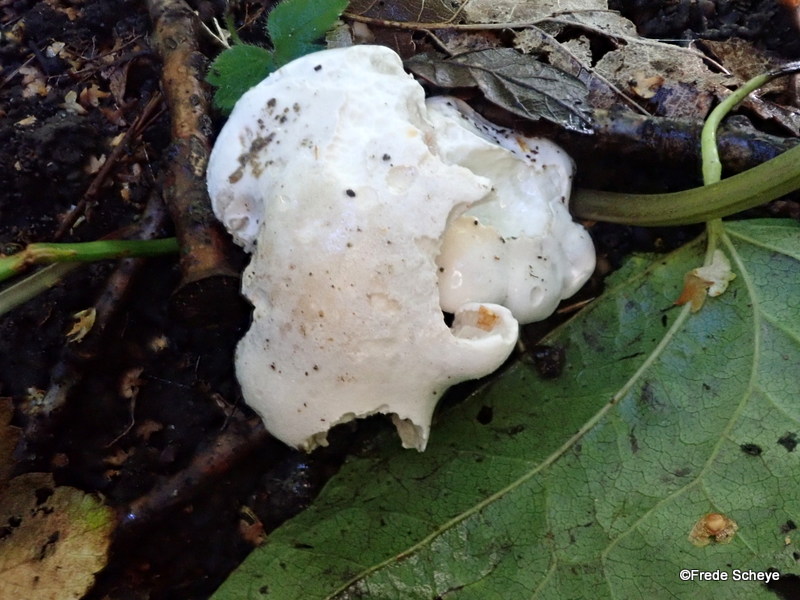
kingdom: Fungi
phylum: Basidiomycota
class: Agaricomycetes
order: Agaricales
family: Entolomataceae
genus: Clitopilus
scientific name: Clitopilus prunulus
